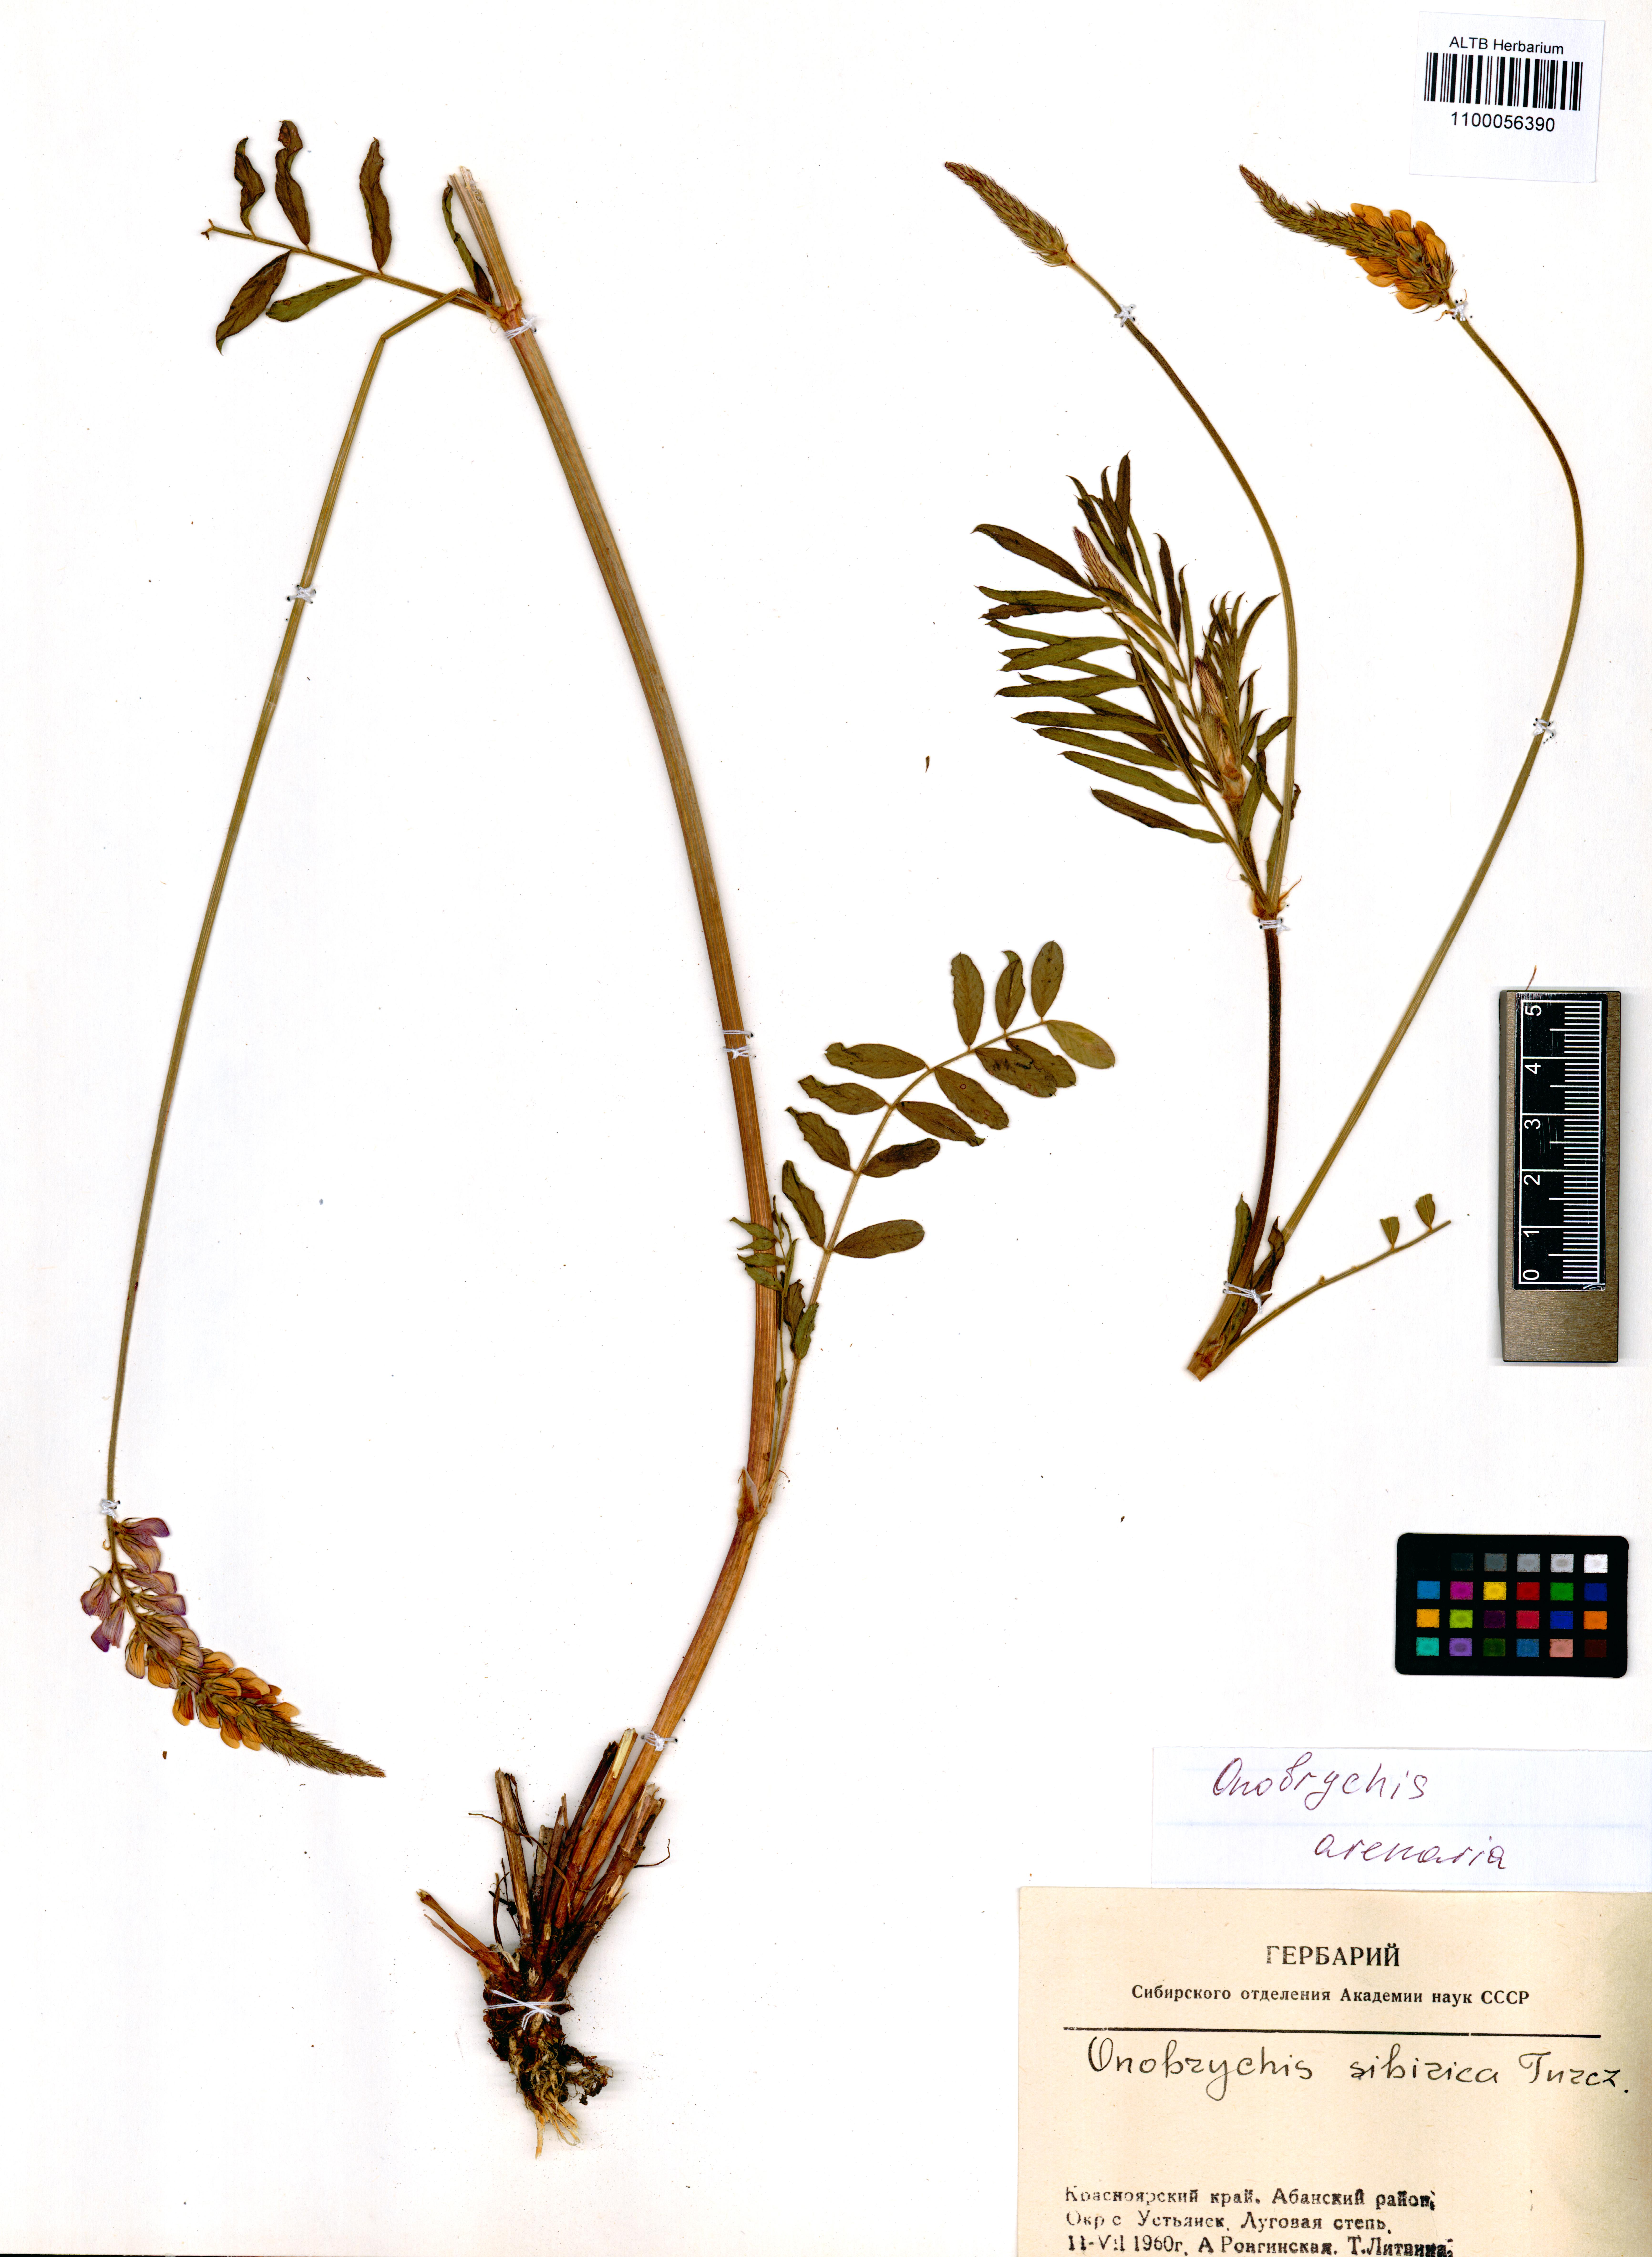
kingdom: Plantae
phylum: Tracheophyta
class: Magnoliopsida
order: Fabales
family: Fabaceae
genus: Onobrychis
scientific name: Onobrychis arenaria
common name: Sand esparcet
